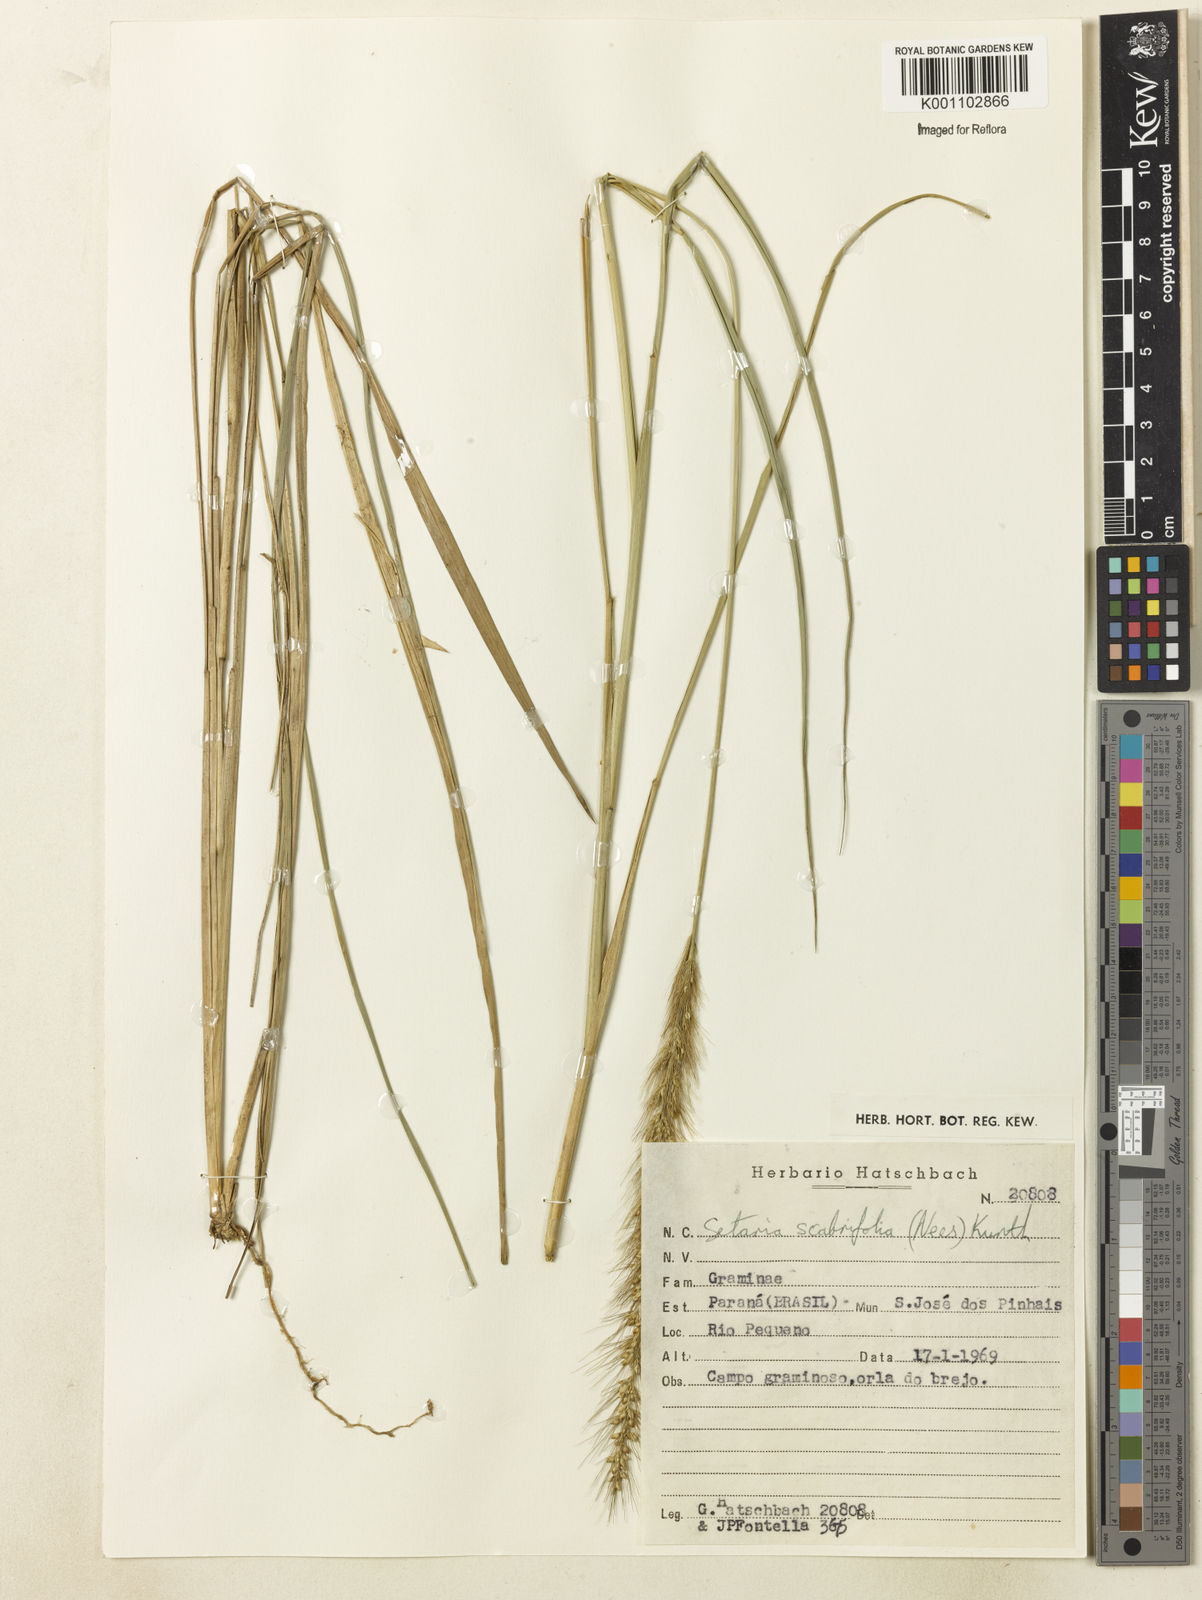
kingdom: Plantae
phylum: Tracheophyta
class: Liliopsida
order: Poales
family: Poaceae
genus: Setaria
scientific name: Setaria scabrifolia
